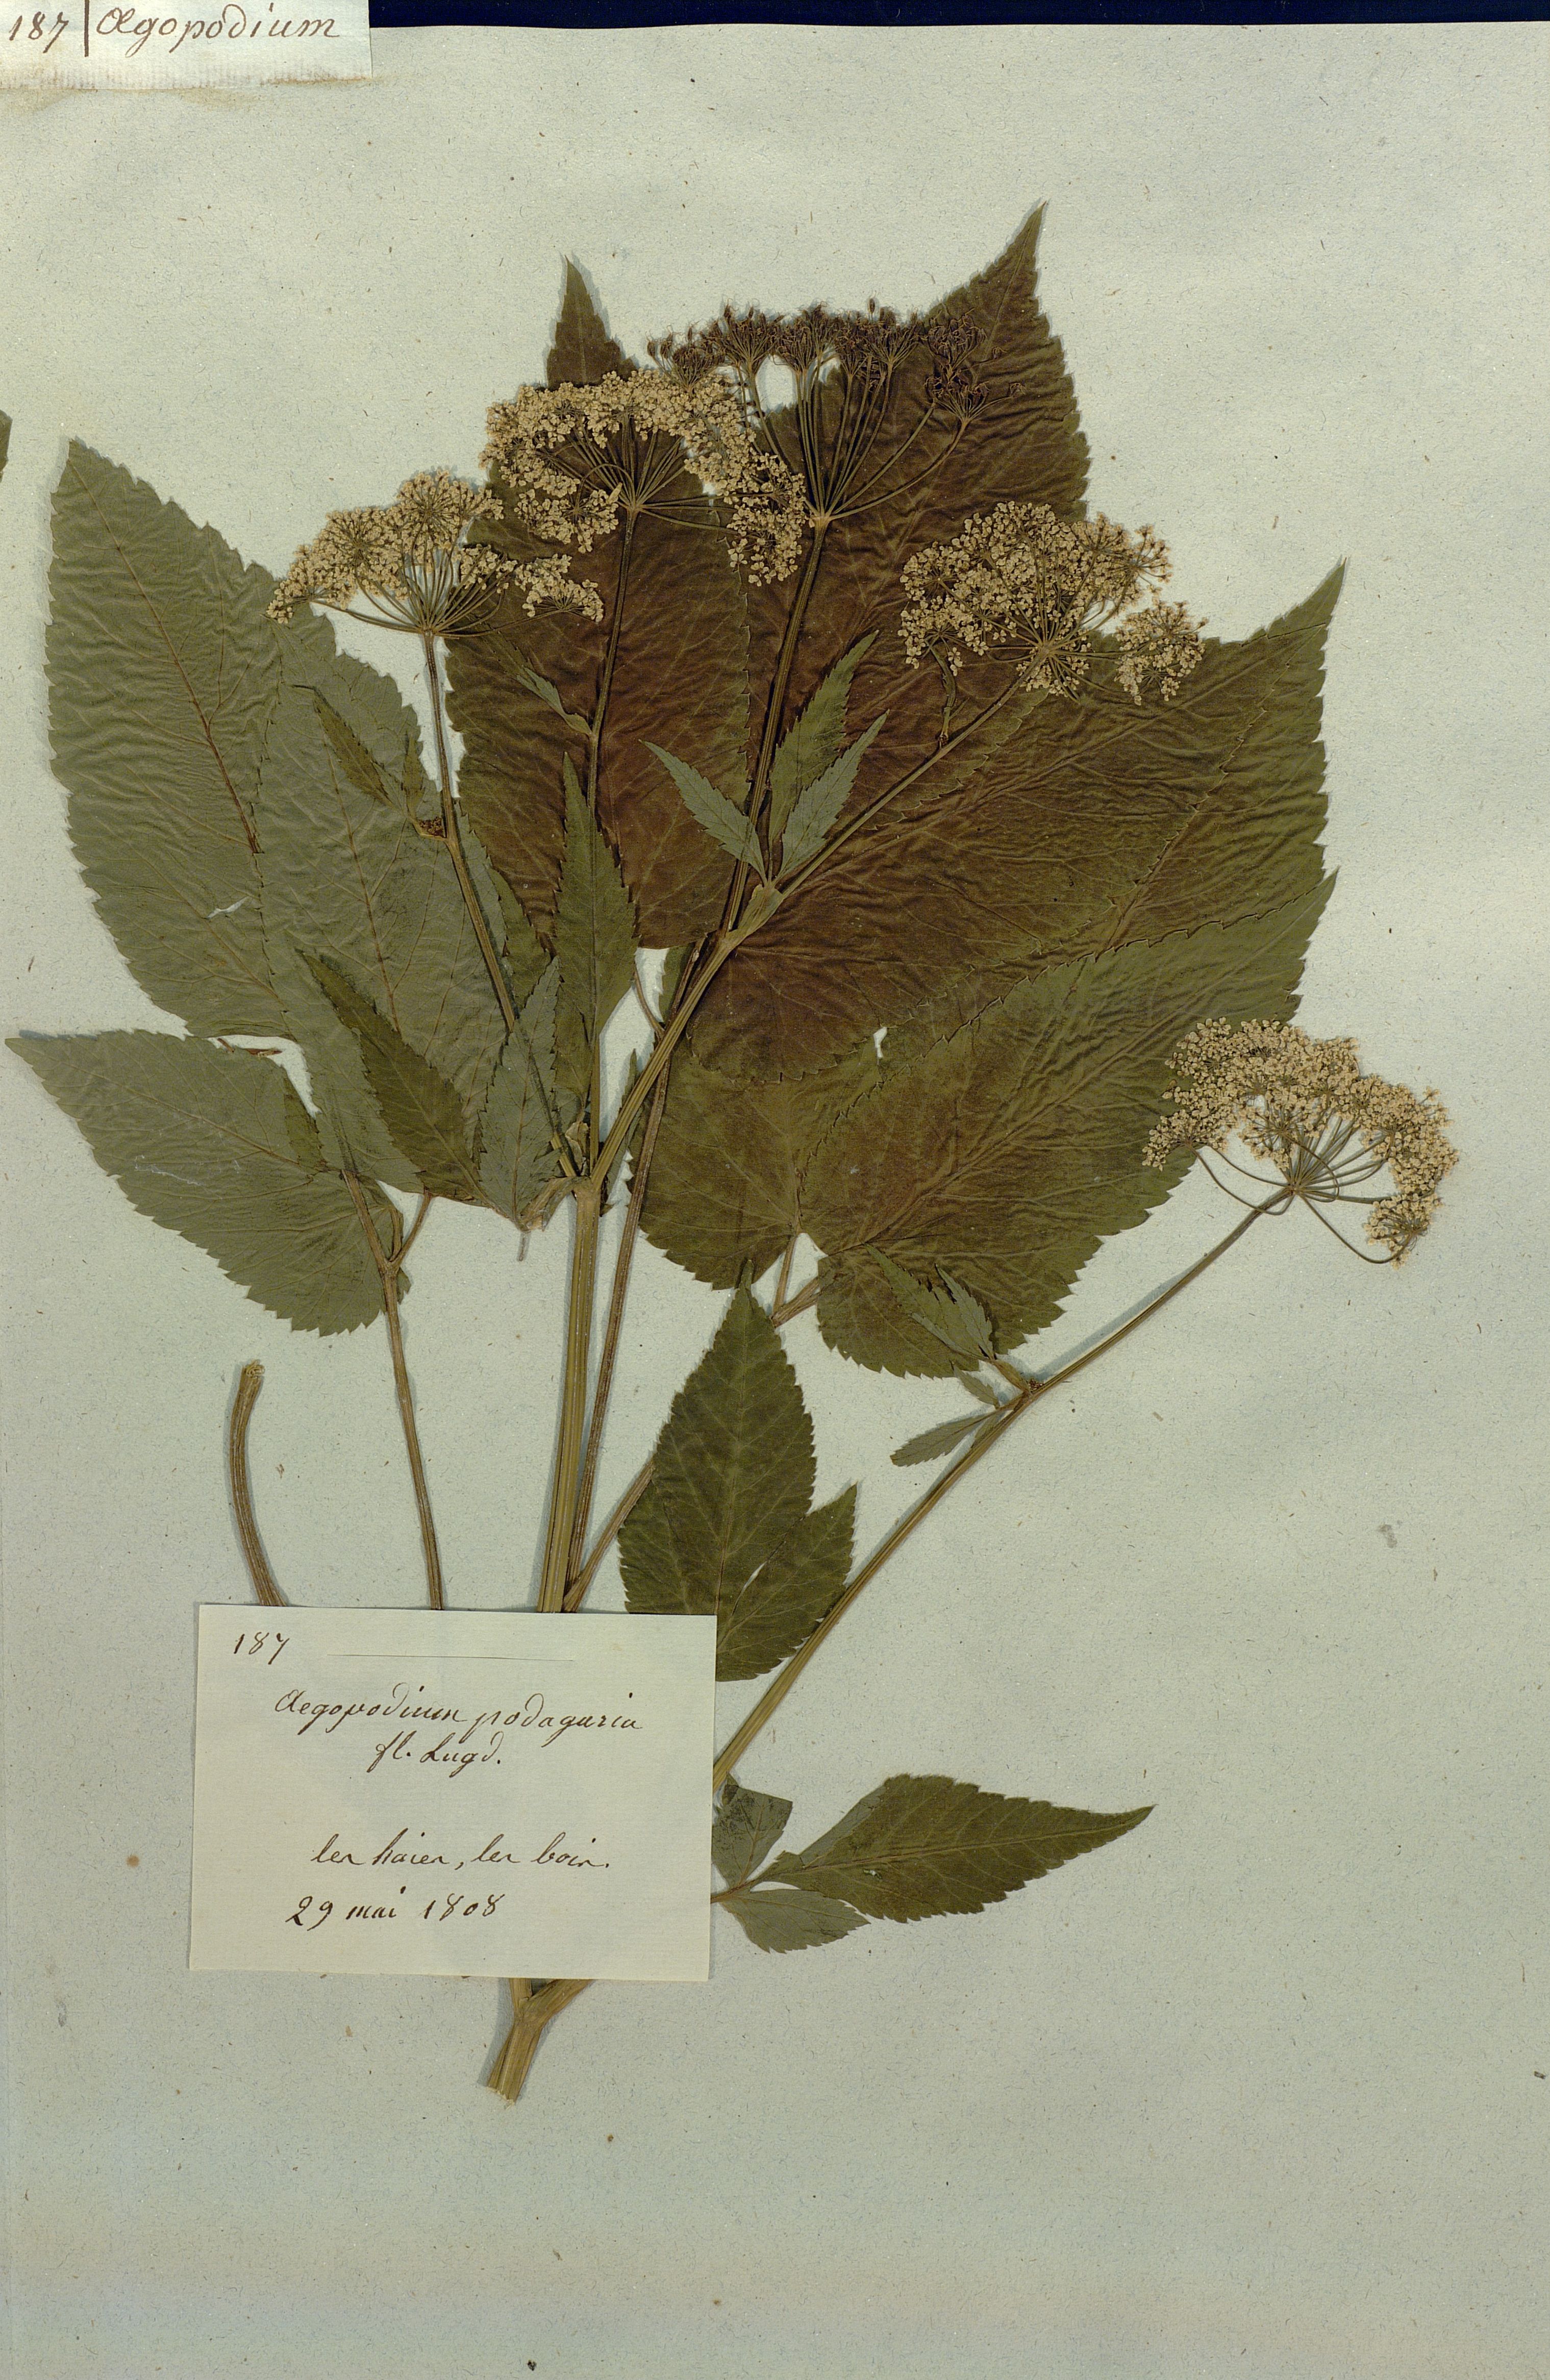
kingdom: Plantae
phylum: Tracheophyta
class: Magnoliopsida
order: Apiales
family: Apiaceae
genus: Aegopodium
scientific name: Aegopodium podagraria
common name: Ground-elder
